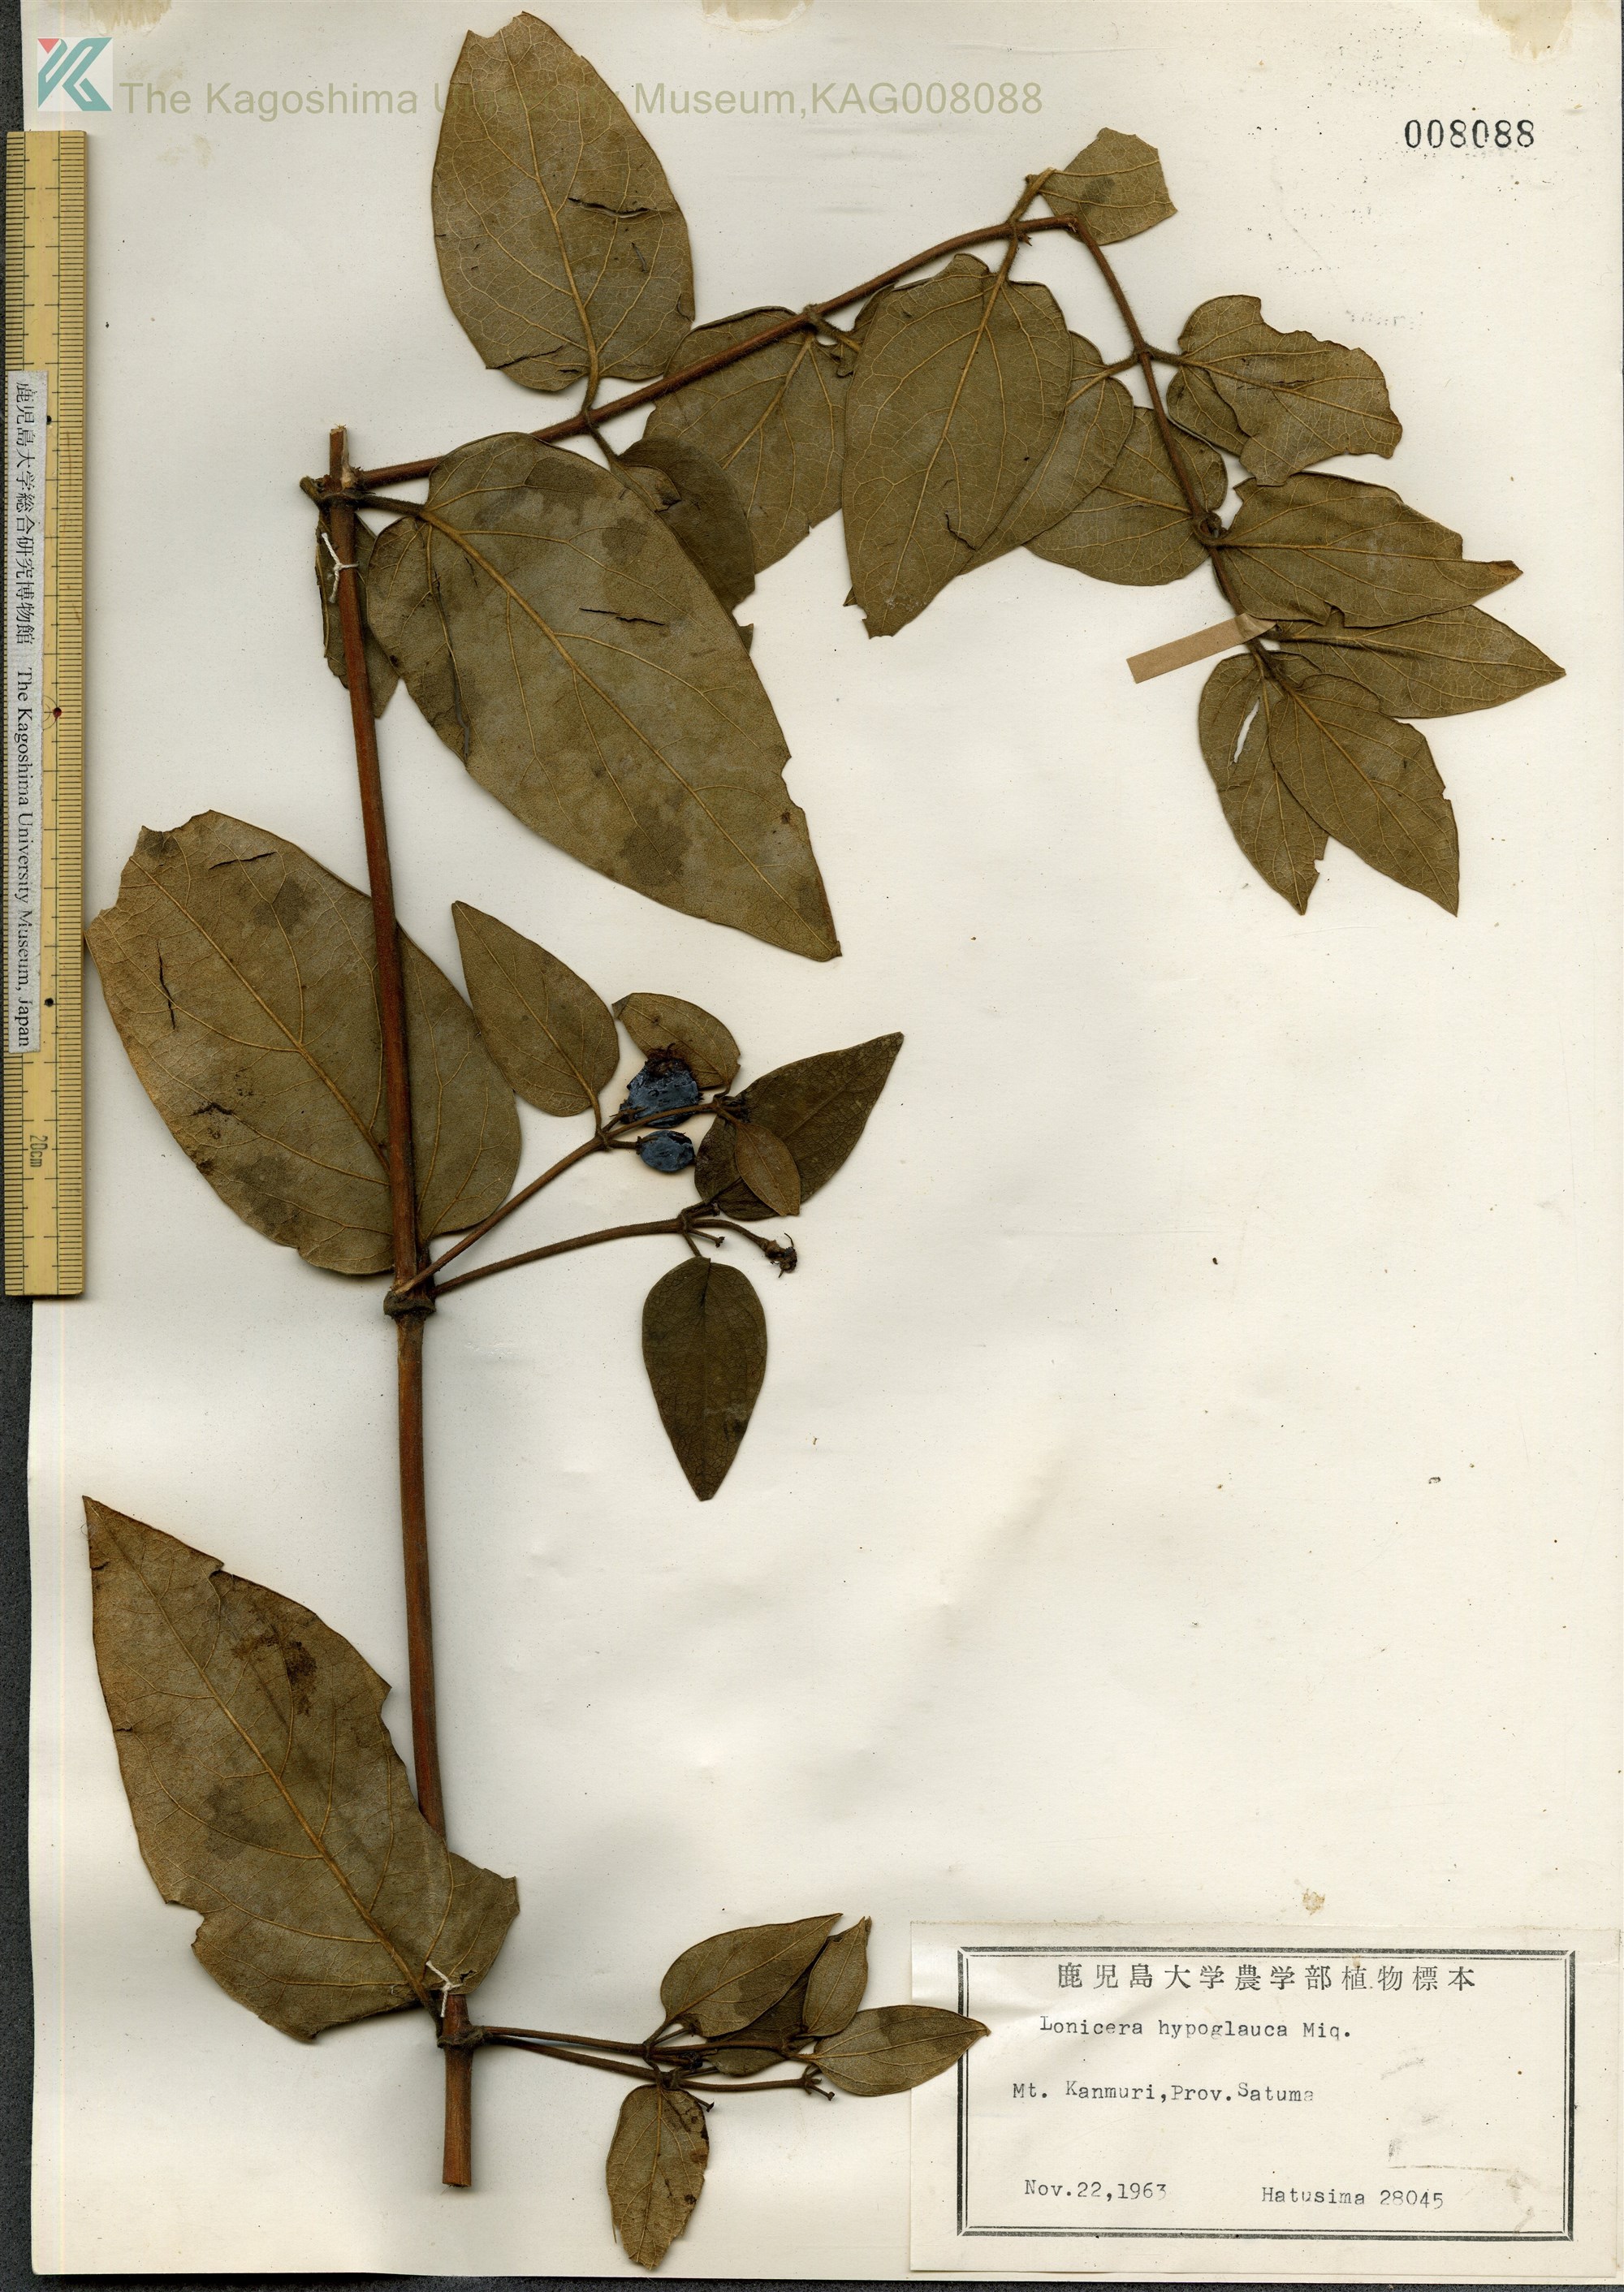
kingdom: Plantae
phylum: Tracheophyta
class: Magnoliopsida
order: Dipsacales
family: Caprifoliaceae
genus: Lonicera
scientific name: Lonicera hypoglauca
